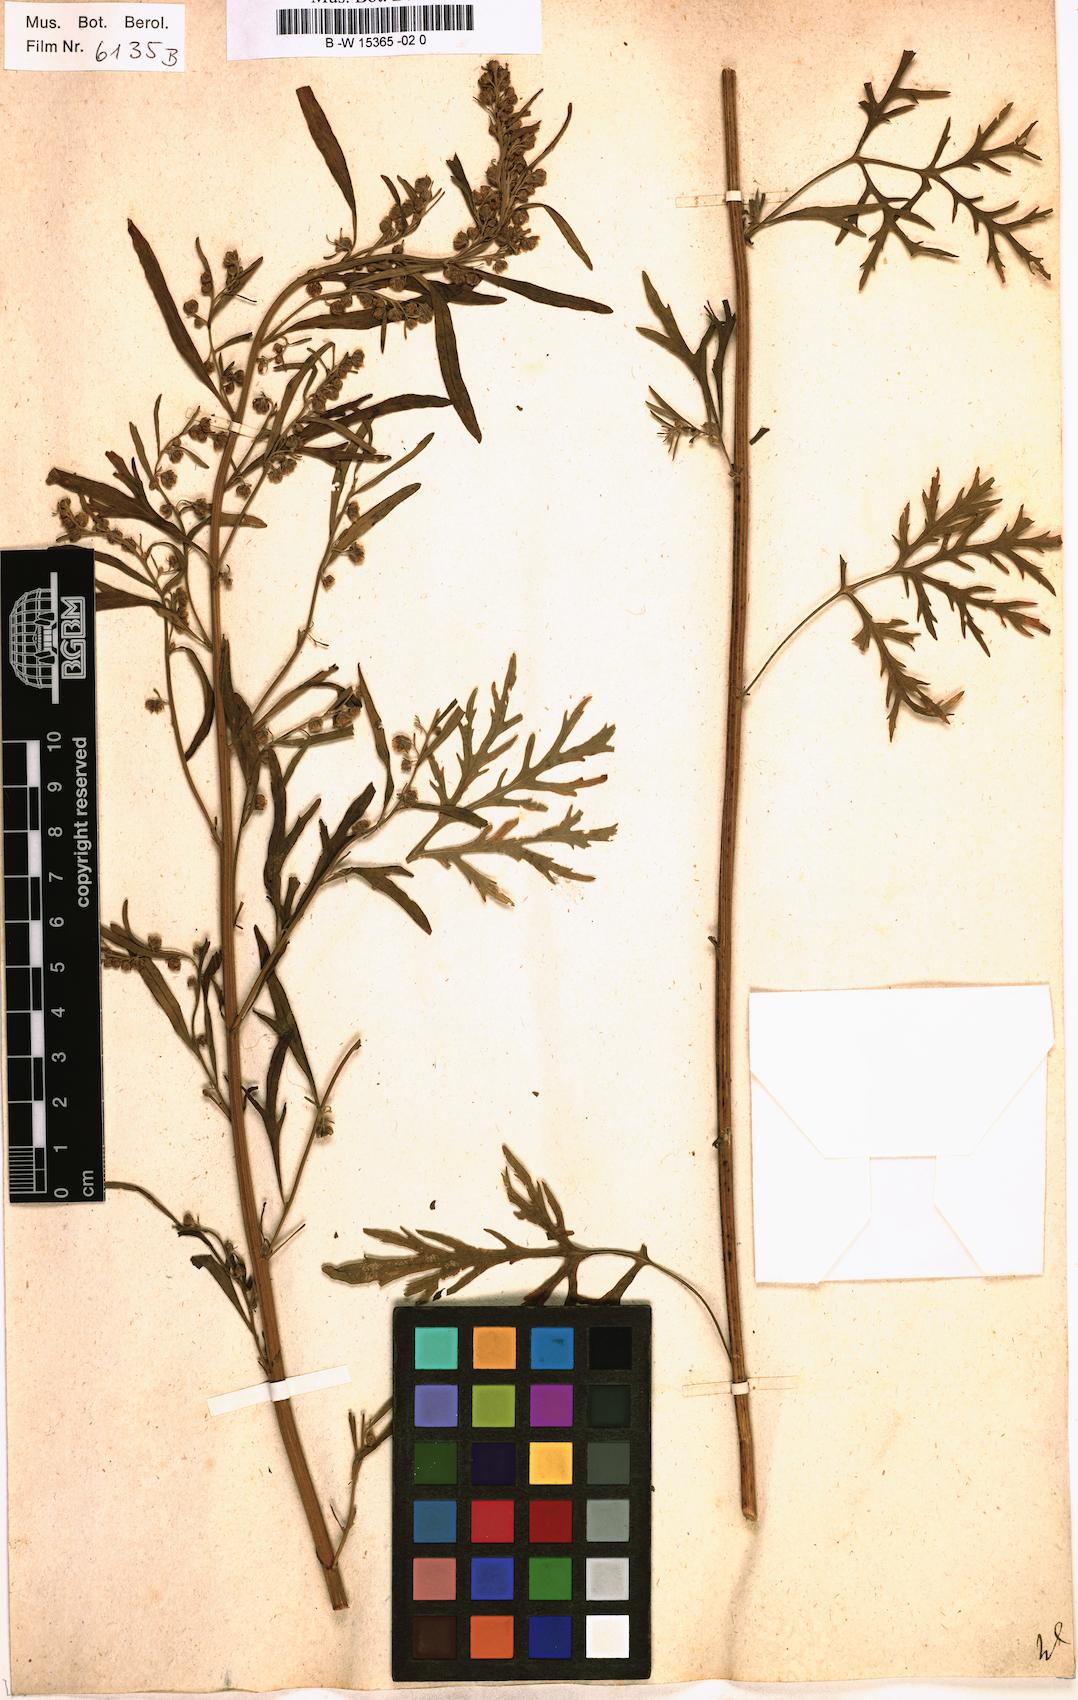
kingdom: Plantae
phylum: Tracheophyta
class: Magnoliopsida
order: Asterales
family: Asteraceae
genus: Artemisia
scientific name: Artemisia sieversiana
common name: Sieversian wormwood
